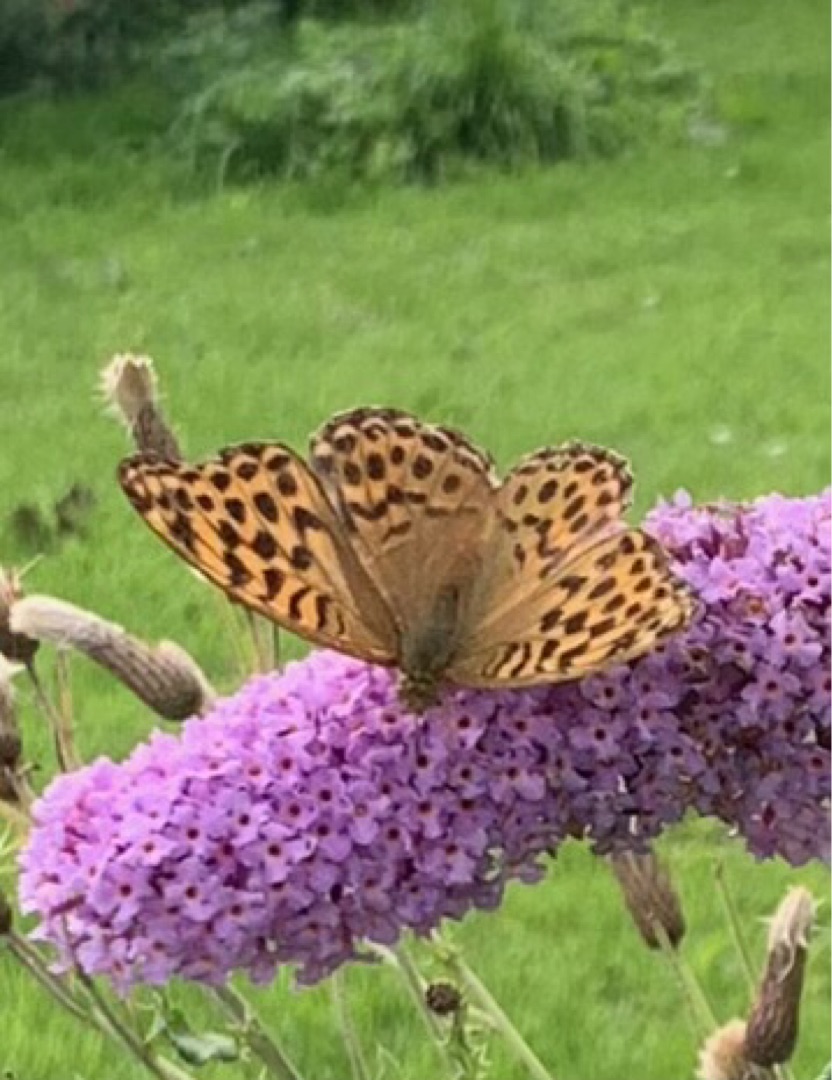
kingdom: Animalia
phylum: Arthropoda
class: Insecta
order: Lepidoptera
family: Nymphalidae
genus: Argynnis
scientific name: Argynnis paphia
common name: Kejserkåbe
